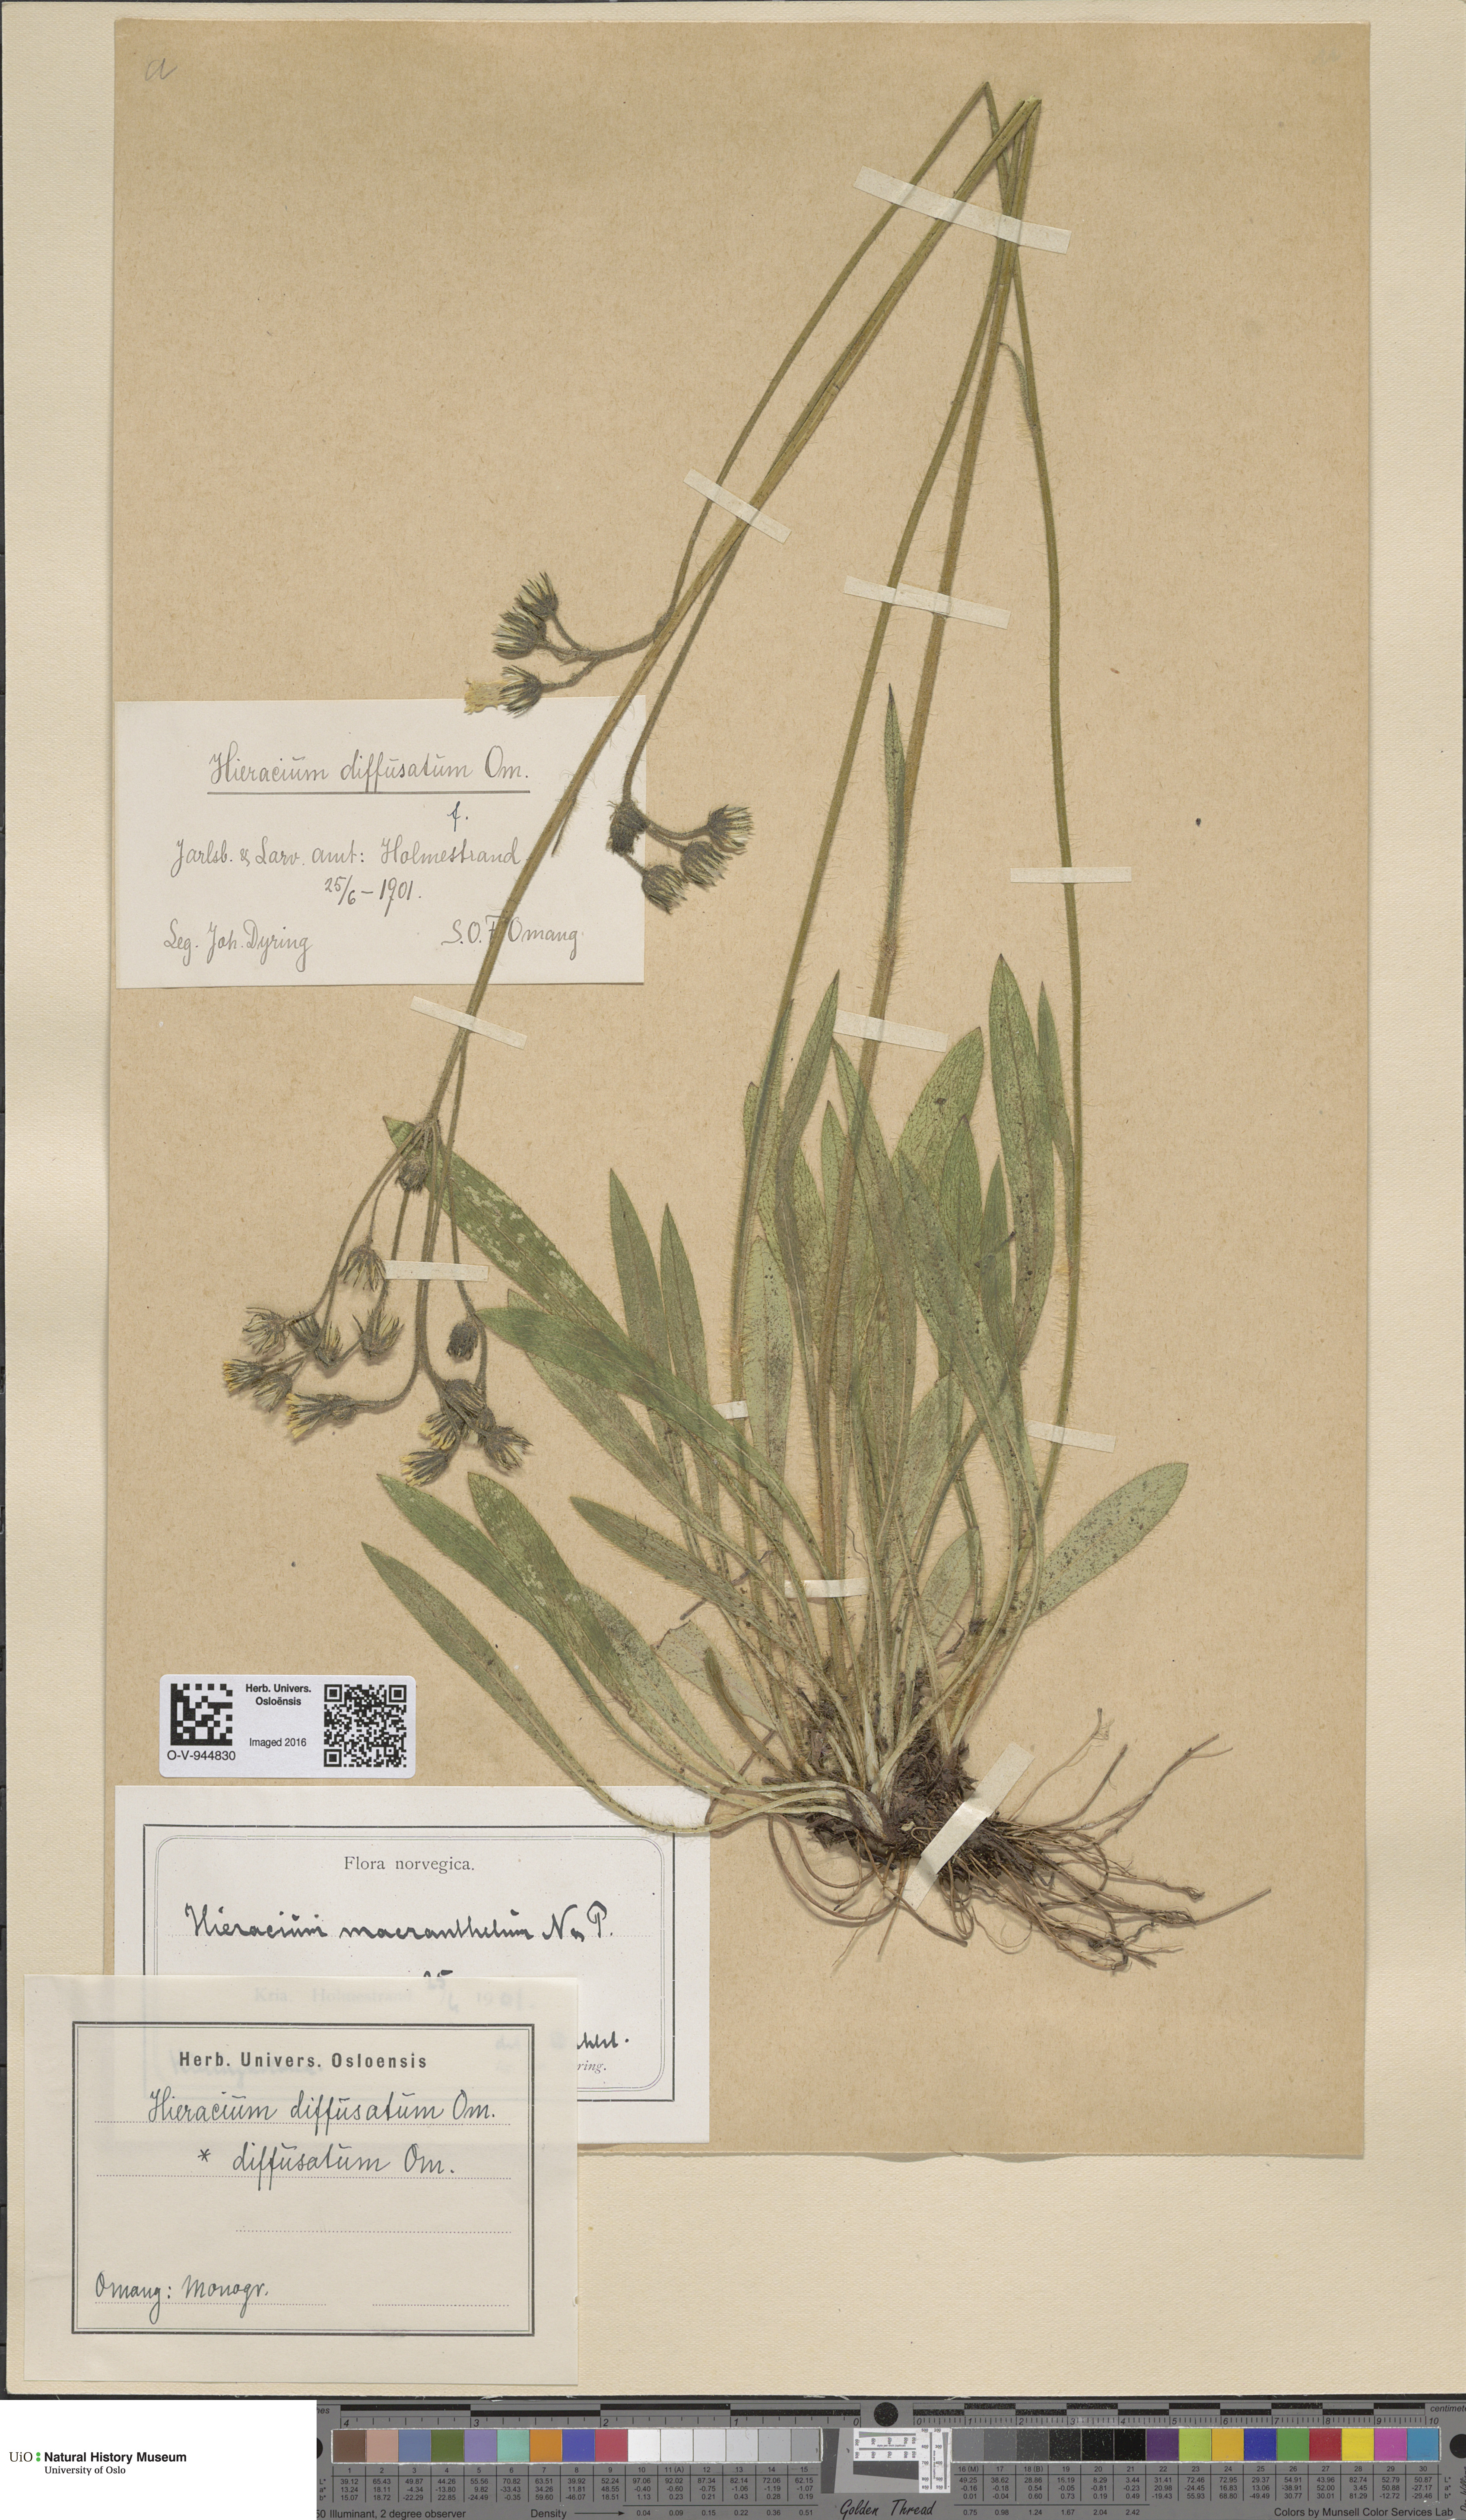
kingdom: Plantae
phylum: Tracheophyta
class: Magnoliopsida
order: Asterales
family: Asteraceae
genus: Pilosella
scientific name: Pilosella dubia
